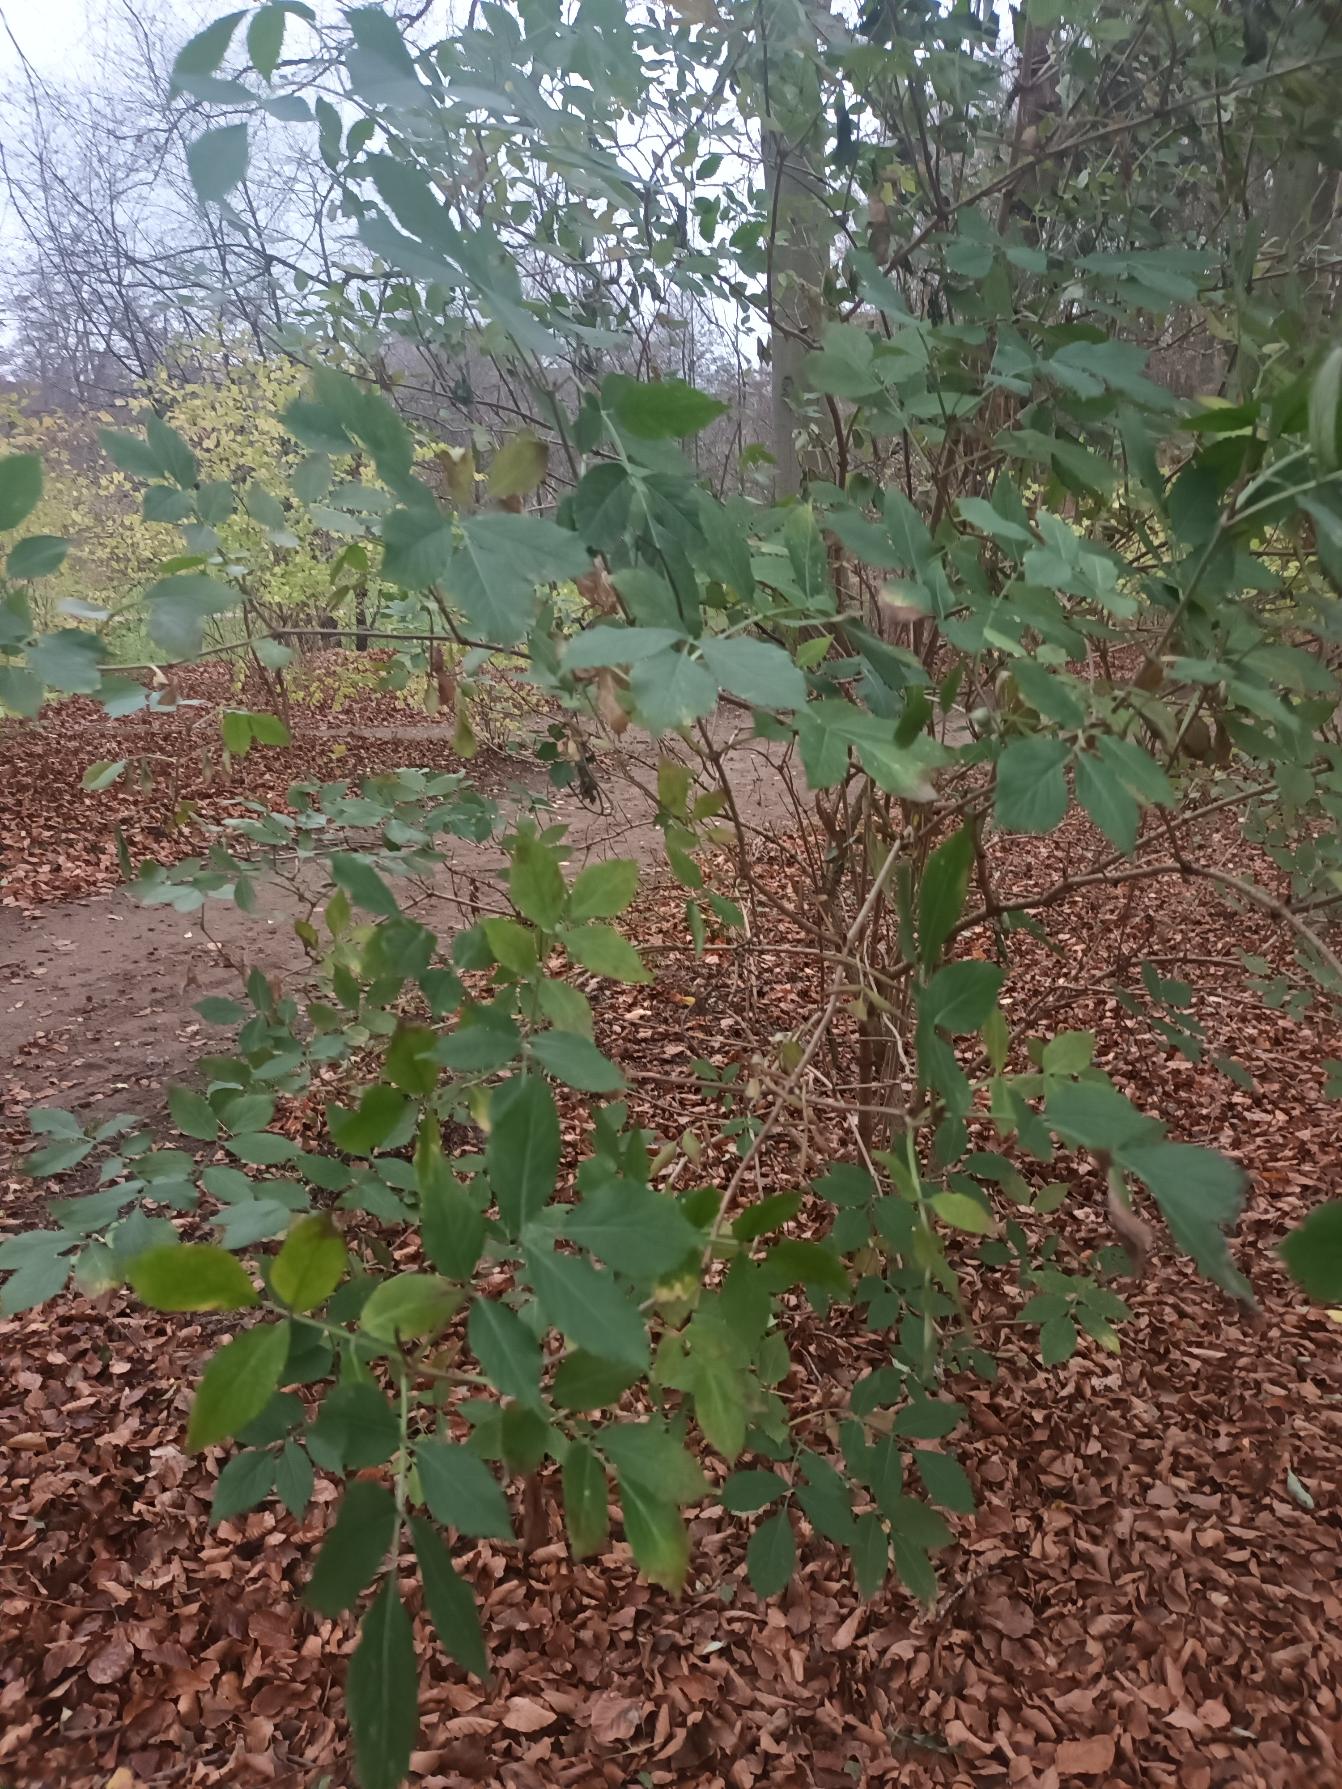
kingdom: Plantae
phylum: Tracheophyta
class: Magnoliopsida
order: Dipsacales
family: Viburnaceae
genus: Sambucus
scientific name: Sambucus nigra
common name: Almindelig hyld
